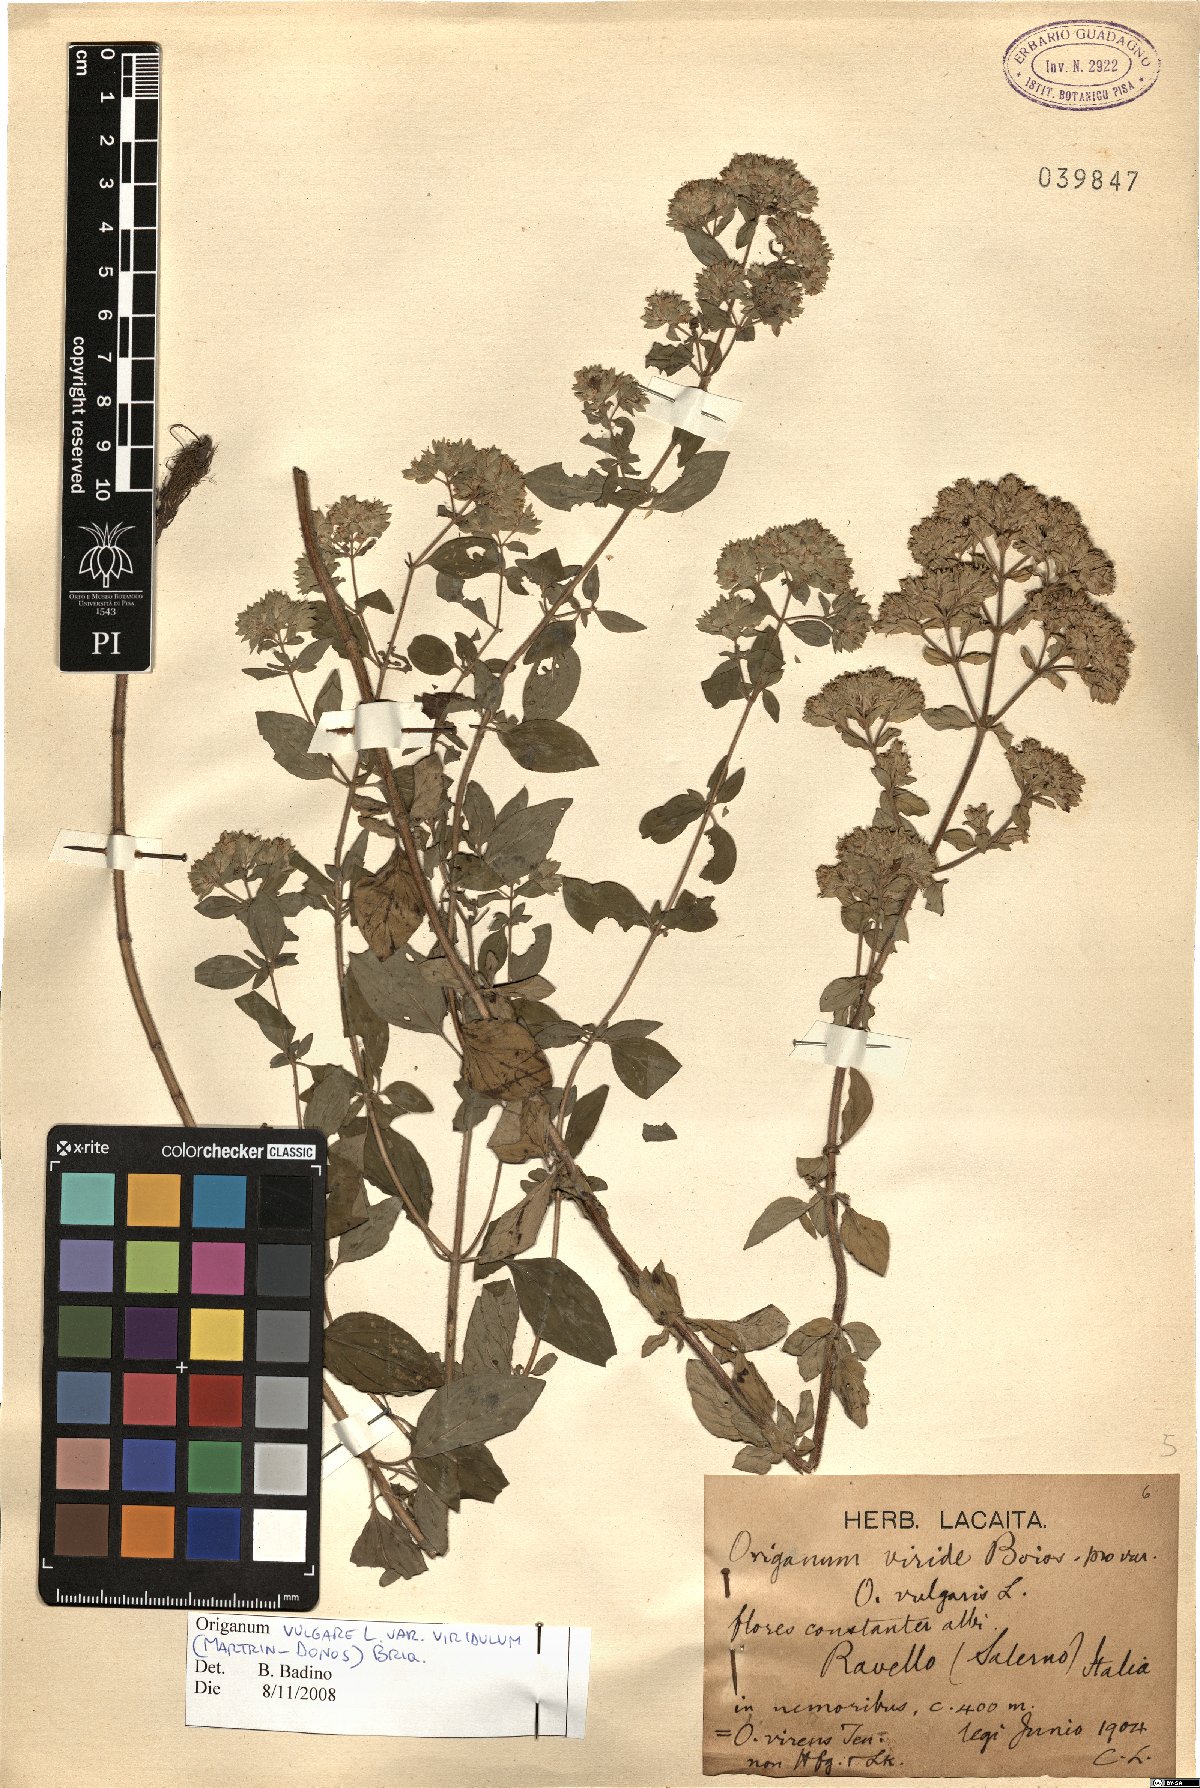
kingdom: Plantae
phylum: Tracheophyta
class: Magnoliopsida
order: Lamiales
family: Lamiaceae
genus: Origanum
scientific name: Origanum vulgare
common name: Wild marjoram
